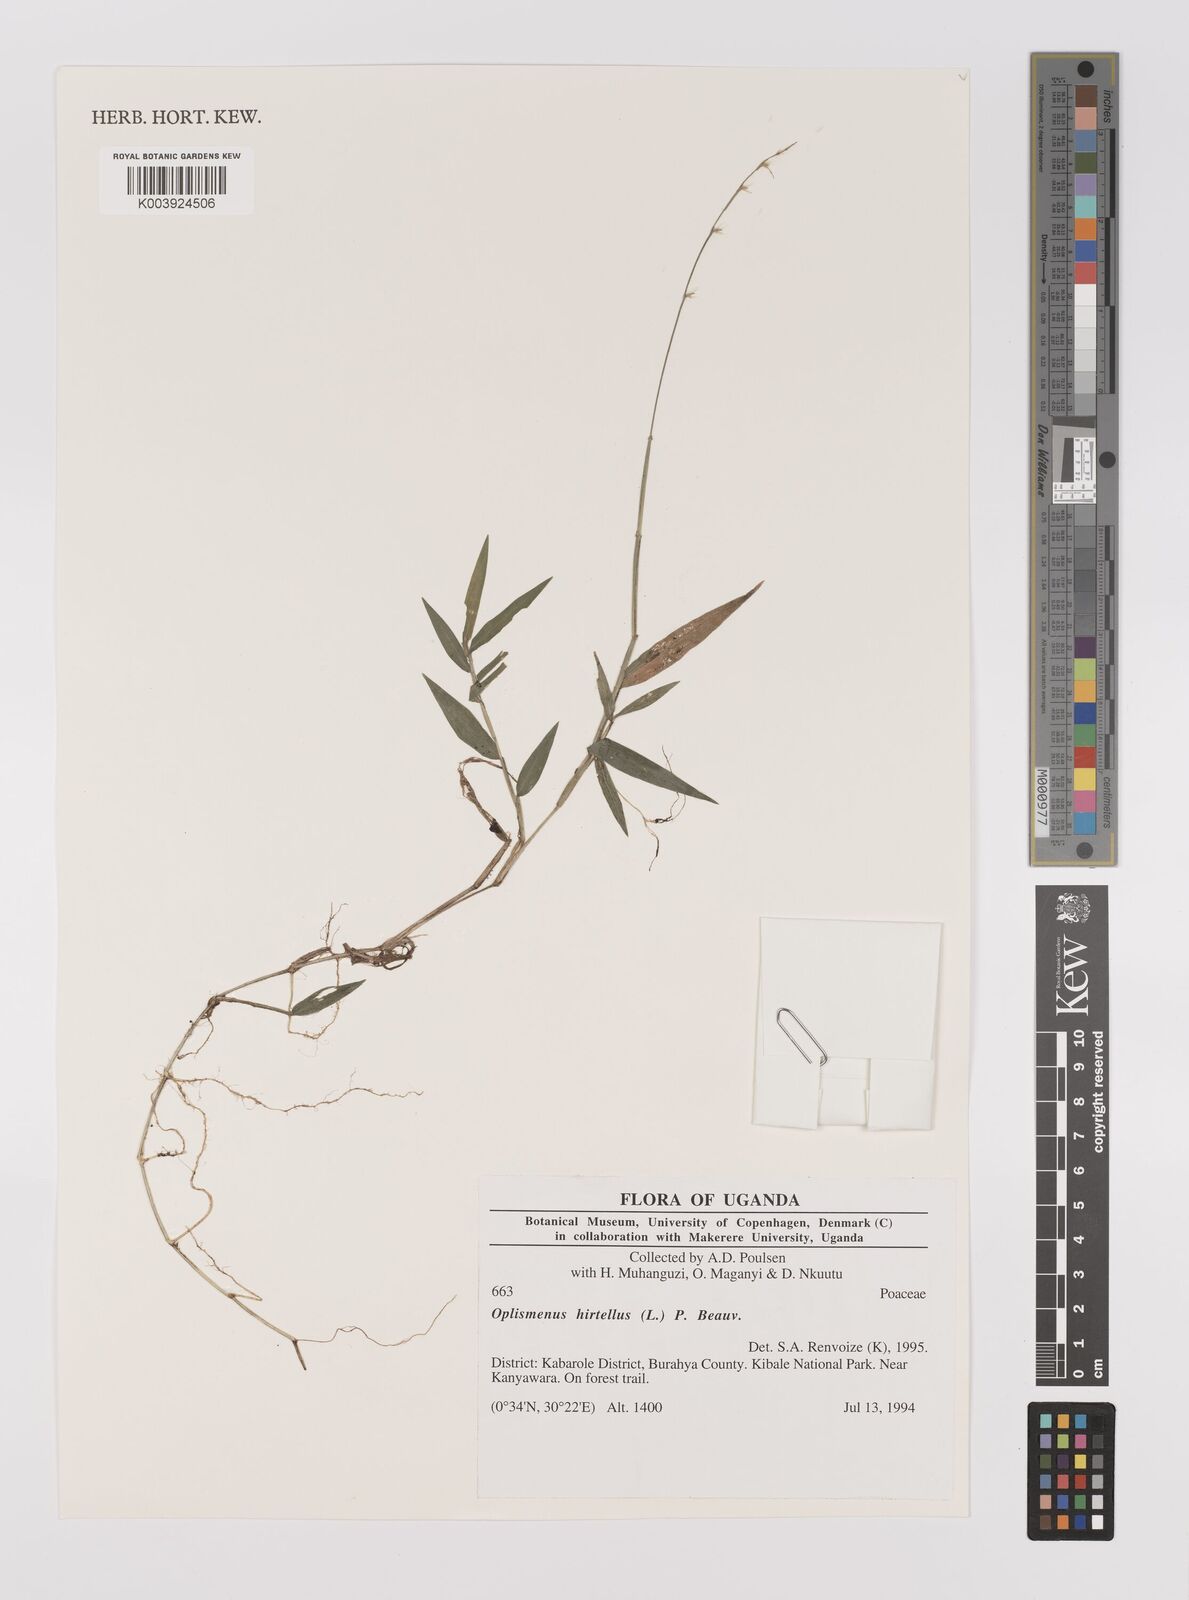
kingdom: Plantae
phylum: Tracheophyta
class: Liliopsida
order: Poales
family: Poaceae
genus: Oplismenus
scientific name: Oplismenus hirtellus
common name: Basketgrass
